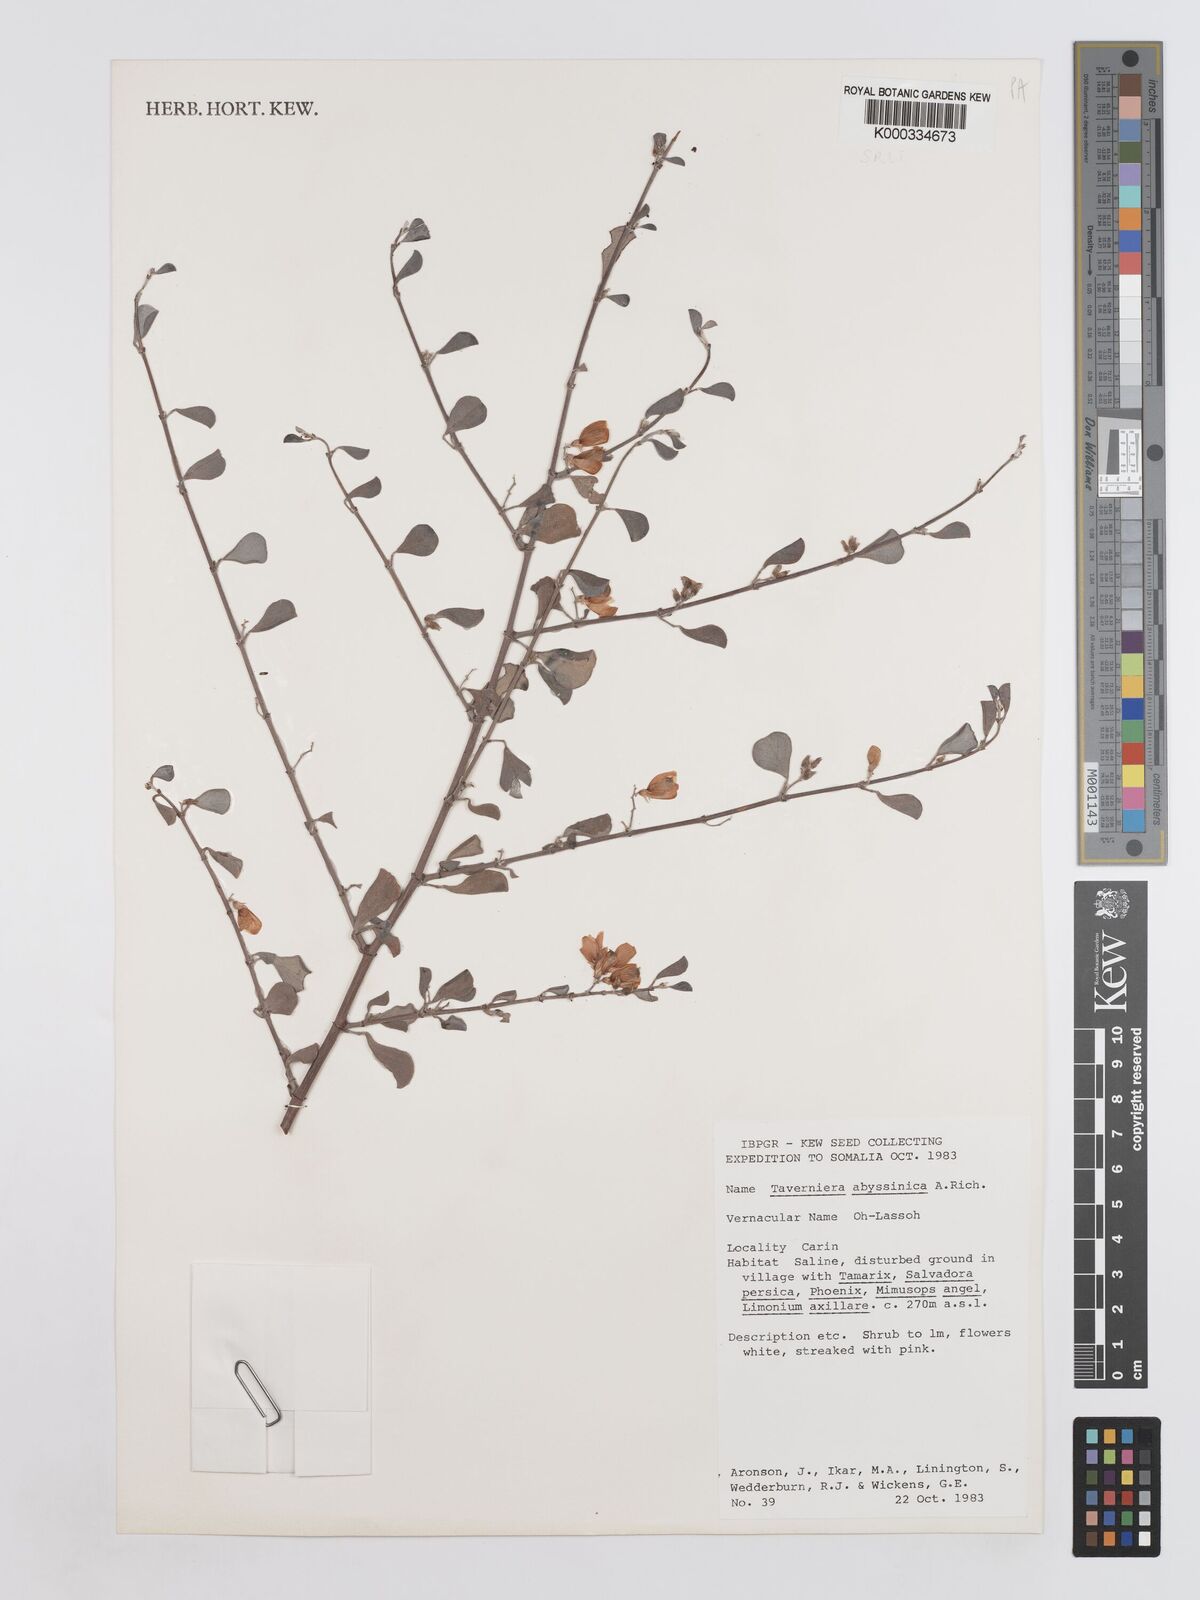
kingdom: Plantae
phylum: Tracheophyta
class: Magnoliopsida
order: Fabales
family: Fabaceae
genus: Taverniera
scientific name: Taverniera abyssinica
